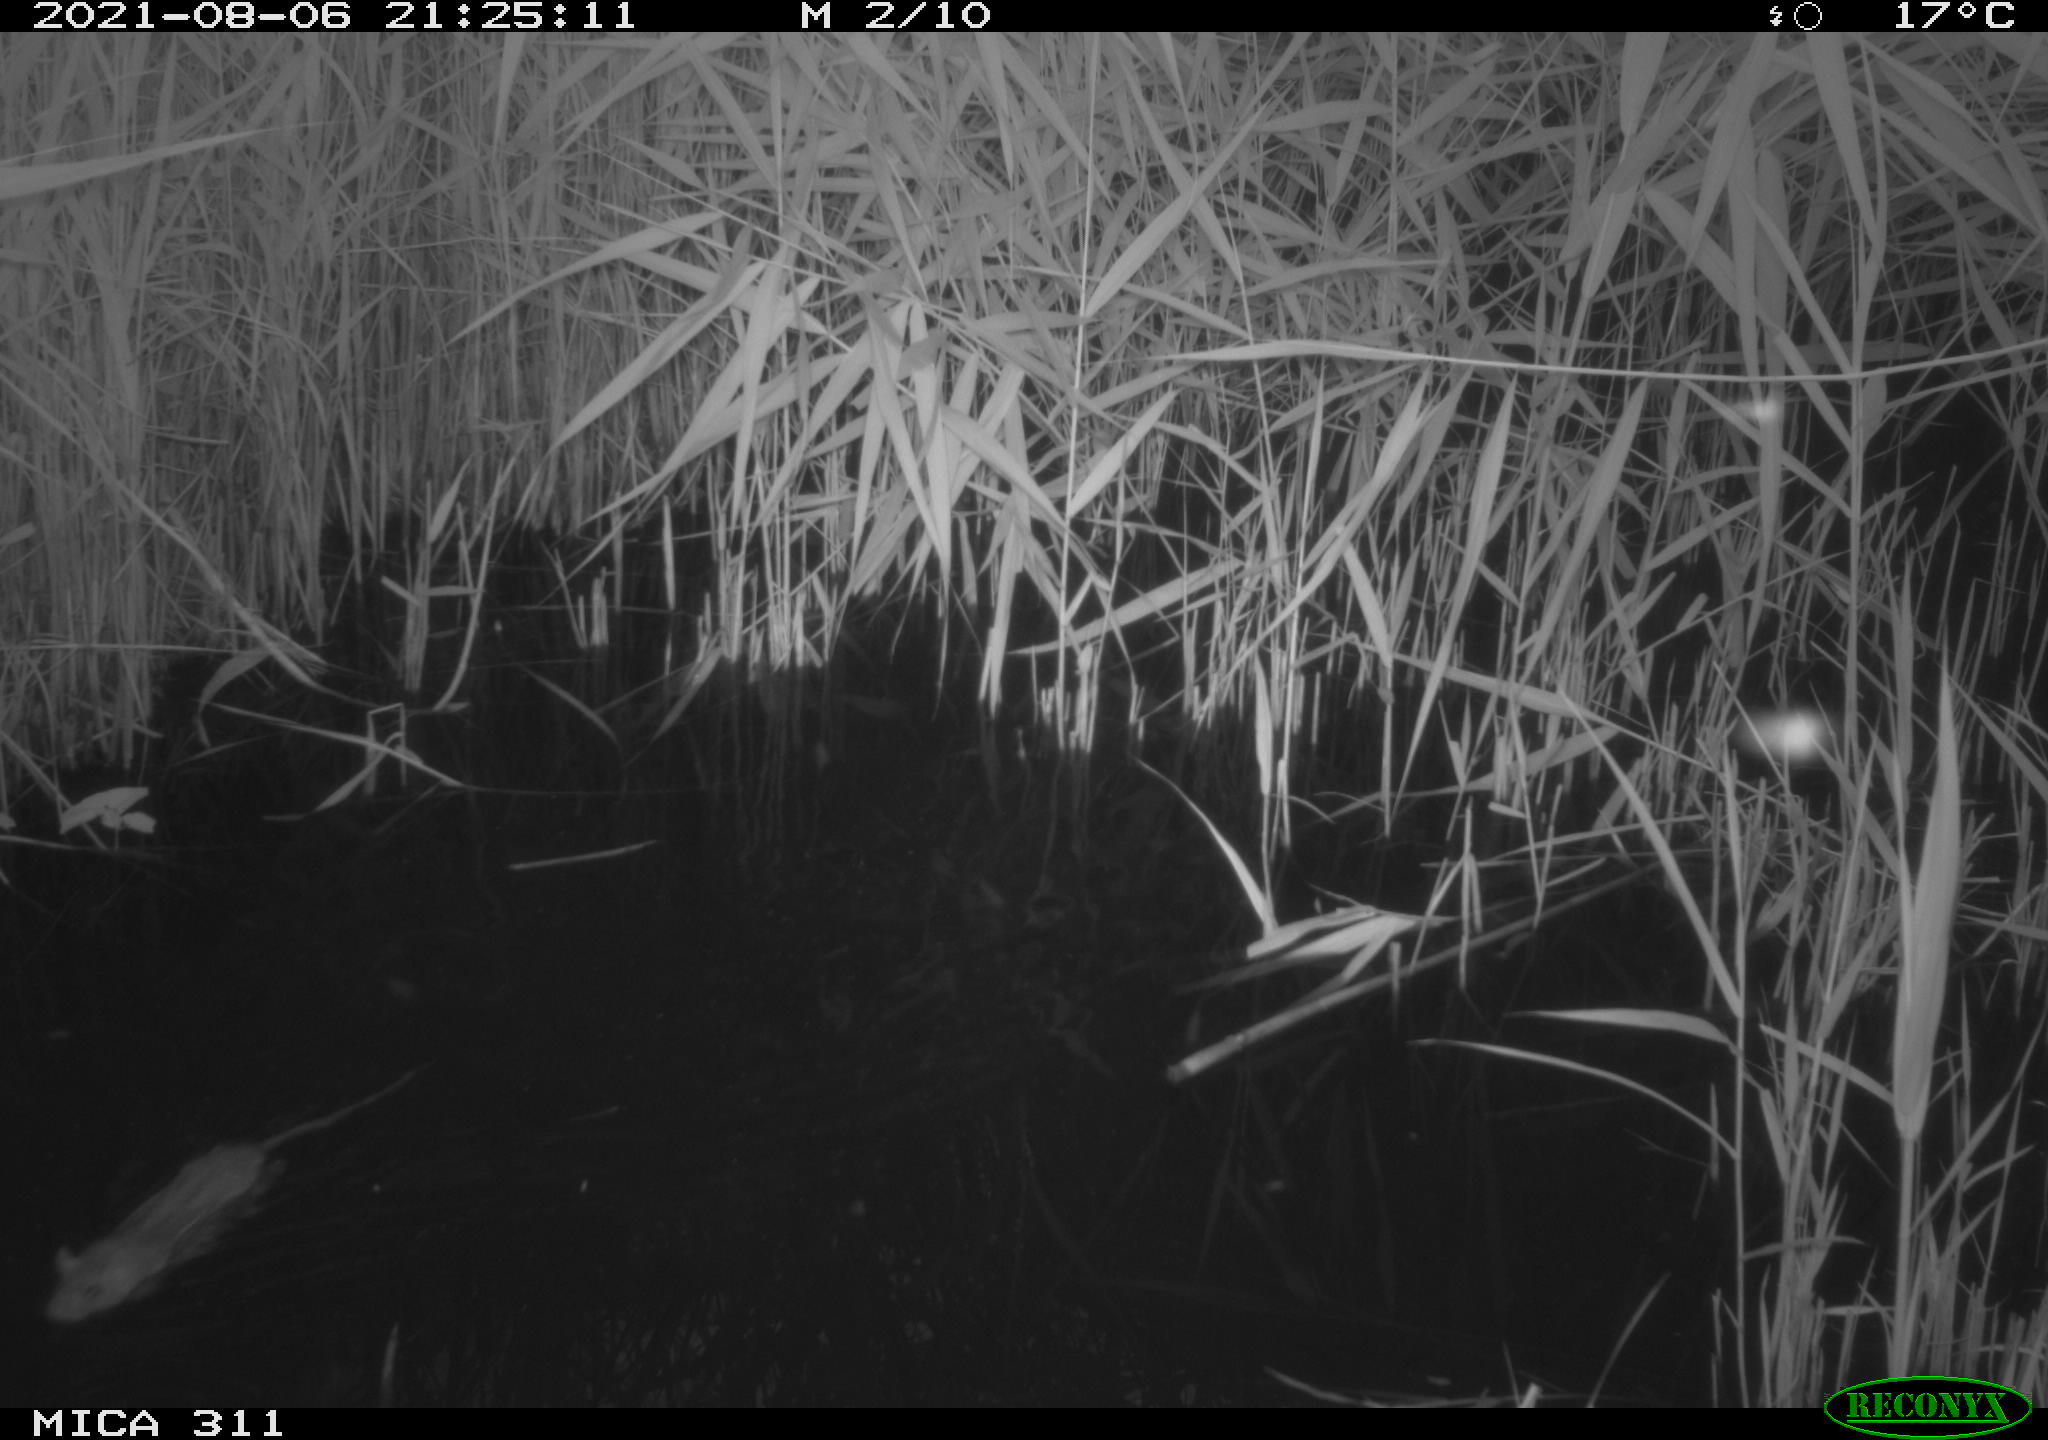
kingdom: Animalia
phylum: Chordata
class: Mammalia
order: Rodentia
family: Muridae
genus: Rattus
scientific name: Rattus norvegicus
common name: Brown rat
